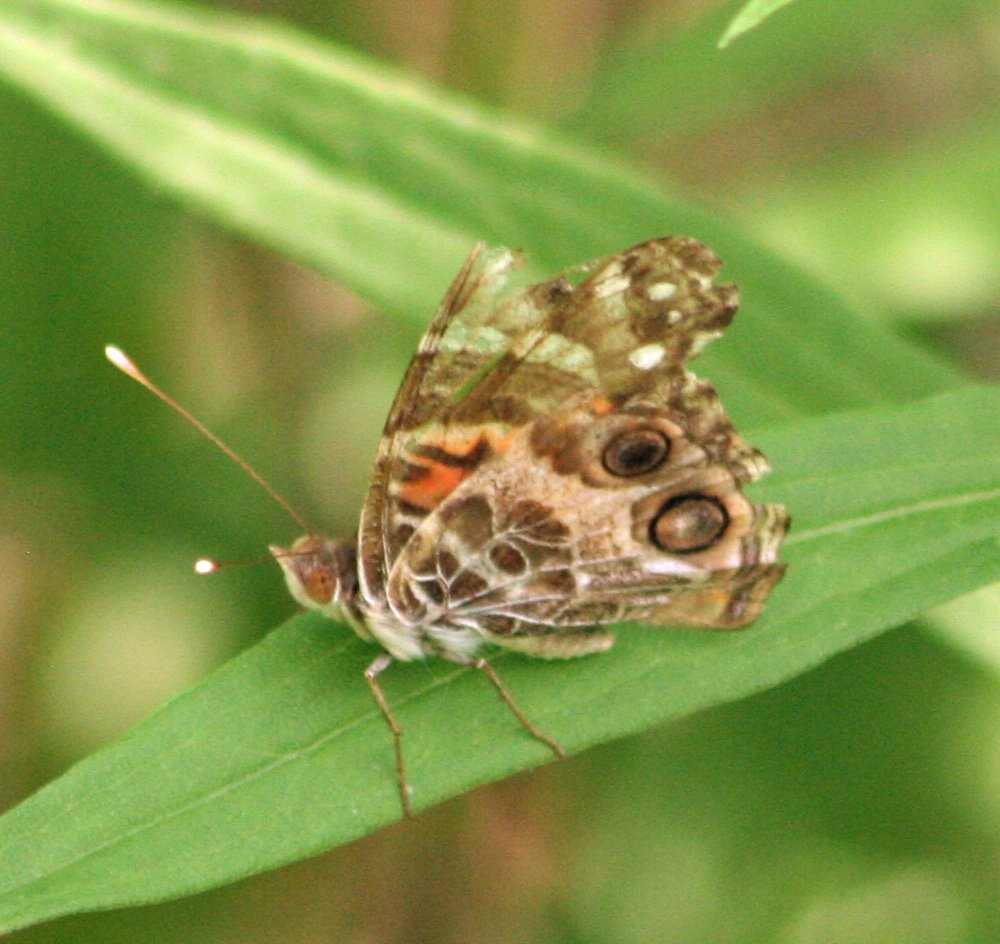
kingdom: Animalia
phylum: Arthropoda
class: Insecta
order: Lepidoptera
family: Nymphalidae
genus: Vanessa
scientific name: Vanessa virginiensis
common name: American Lady
